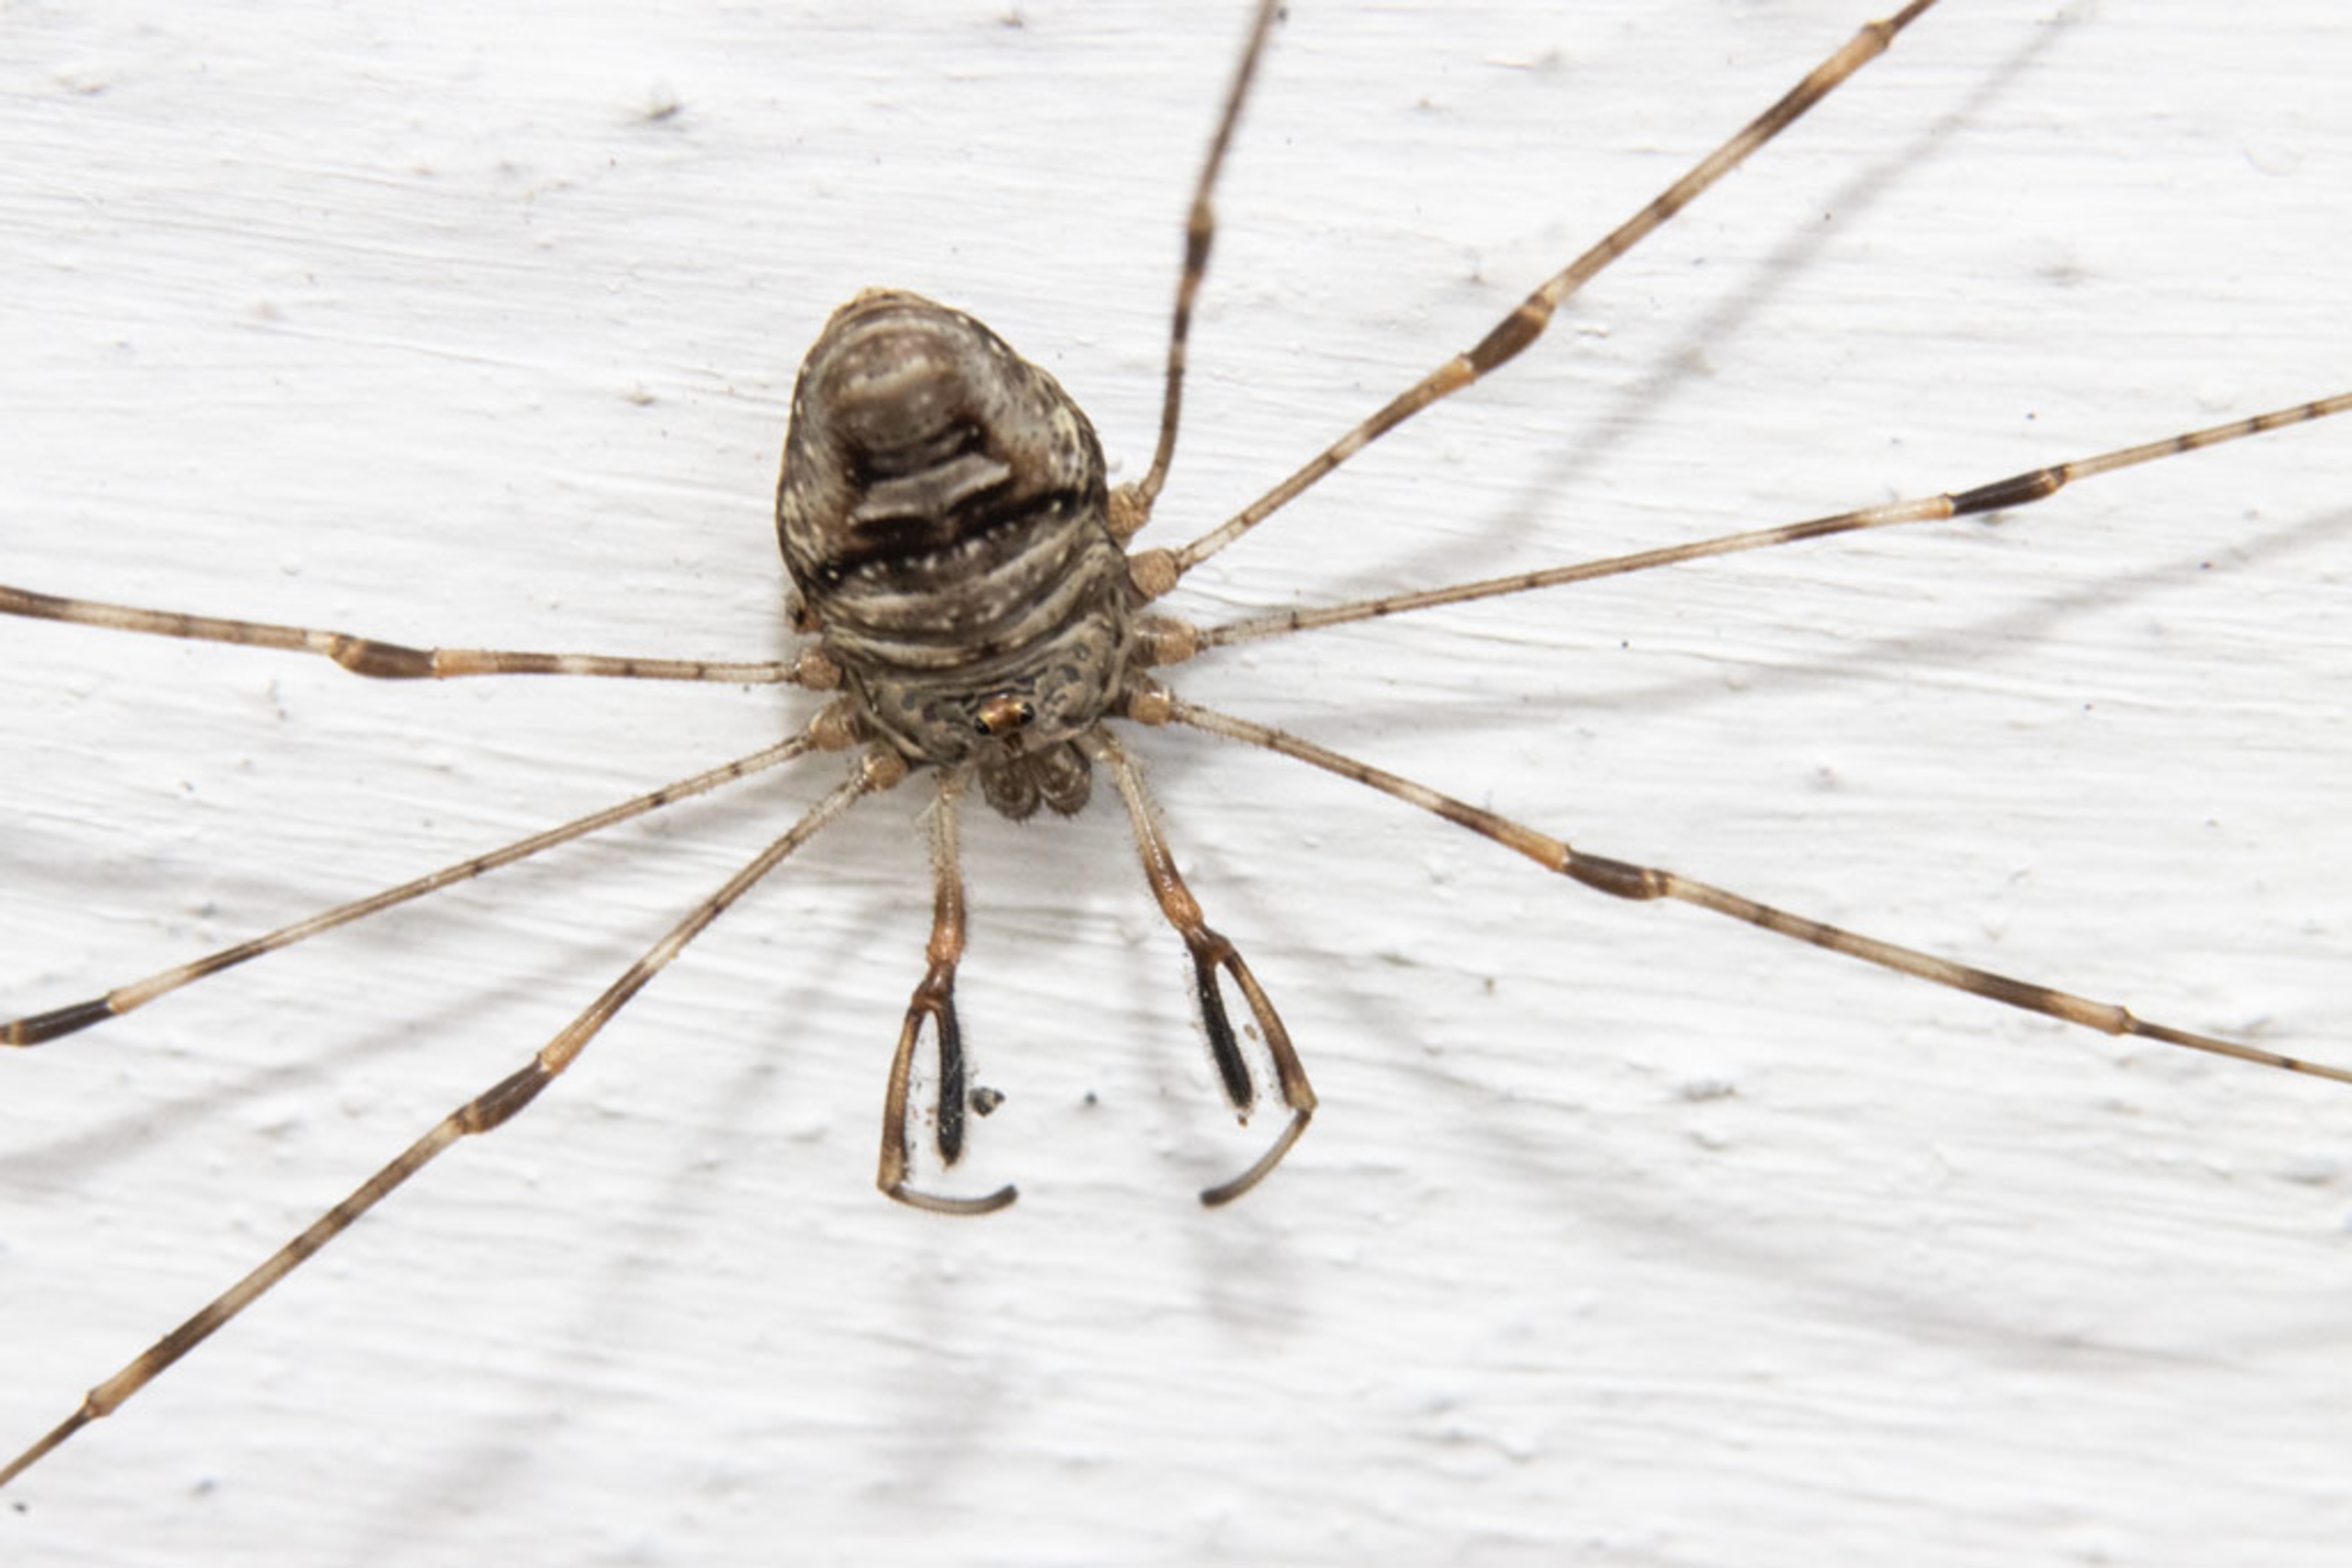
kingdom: Animalia
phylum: Arthropoda
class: Arachnida
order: Opiliones
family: Phalangiidae
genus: Dicranopalpus
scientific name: Dicranopalpus ramosus
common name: Gaffelmejer
